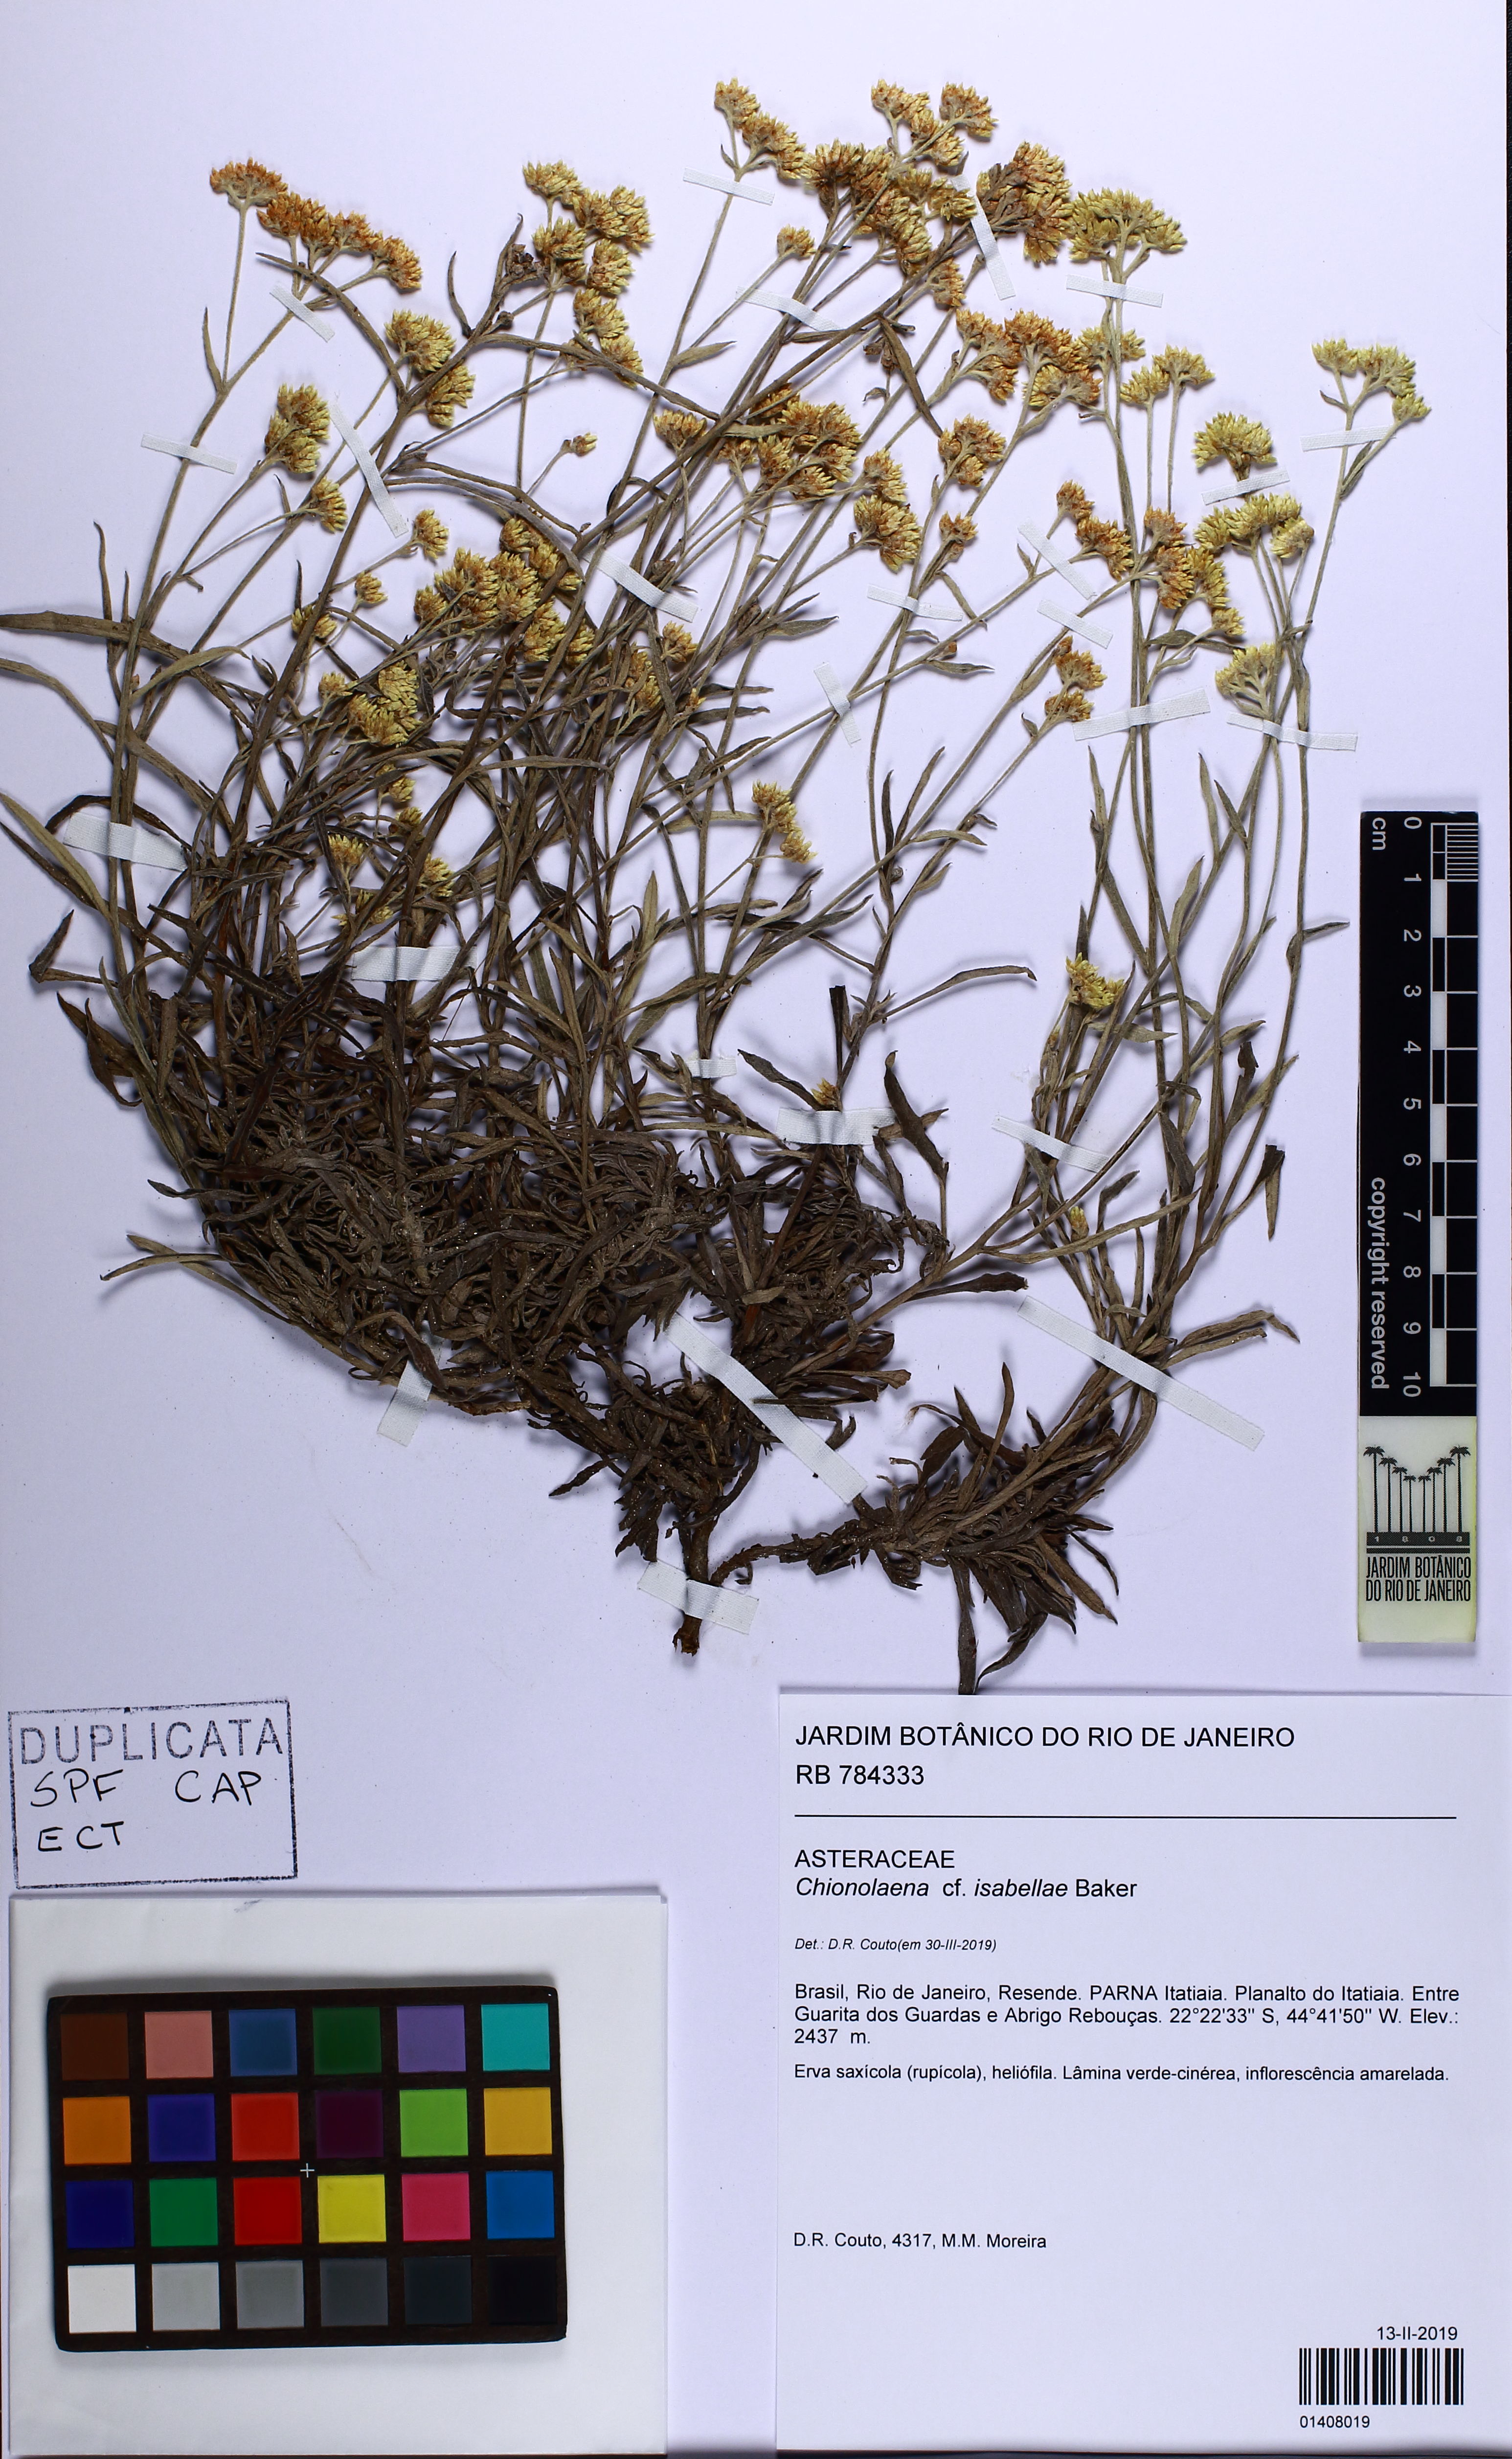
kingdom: Plantae
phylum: Tracheophyta
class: Magnoliopsida
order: Asterales
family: Asteraceae
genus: Chionolaena
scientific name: Chionolaena isabellae
